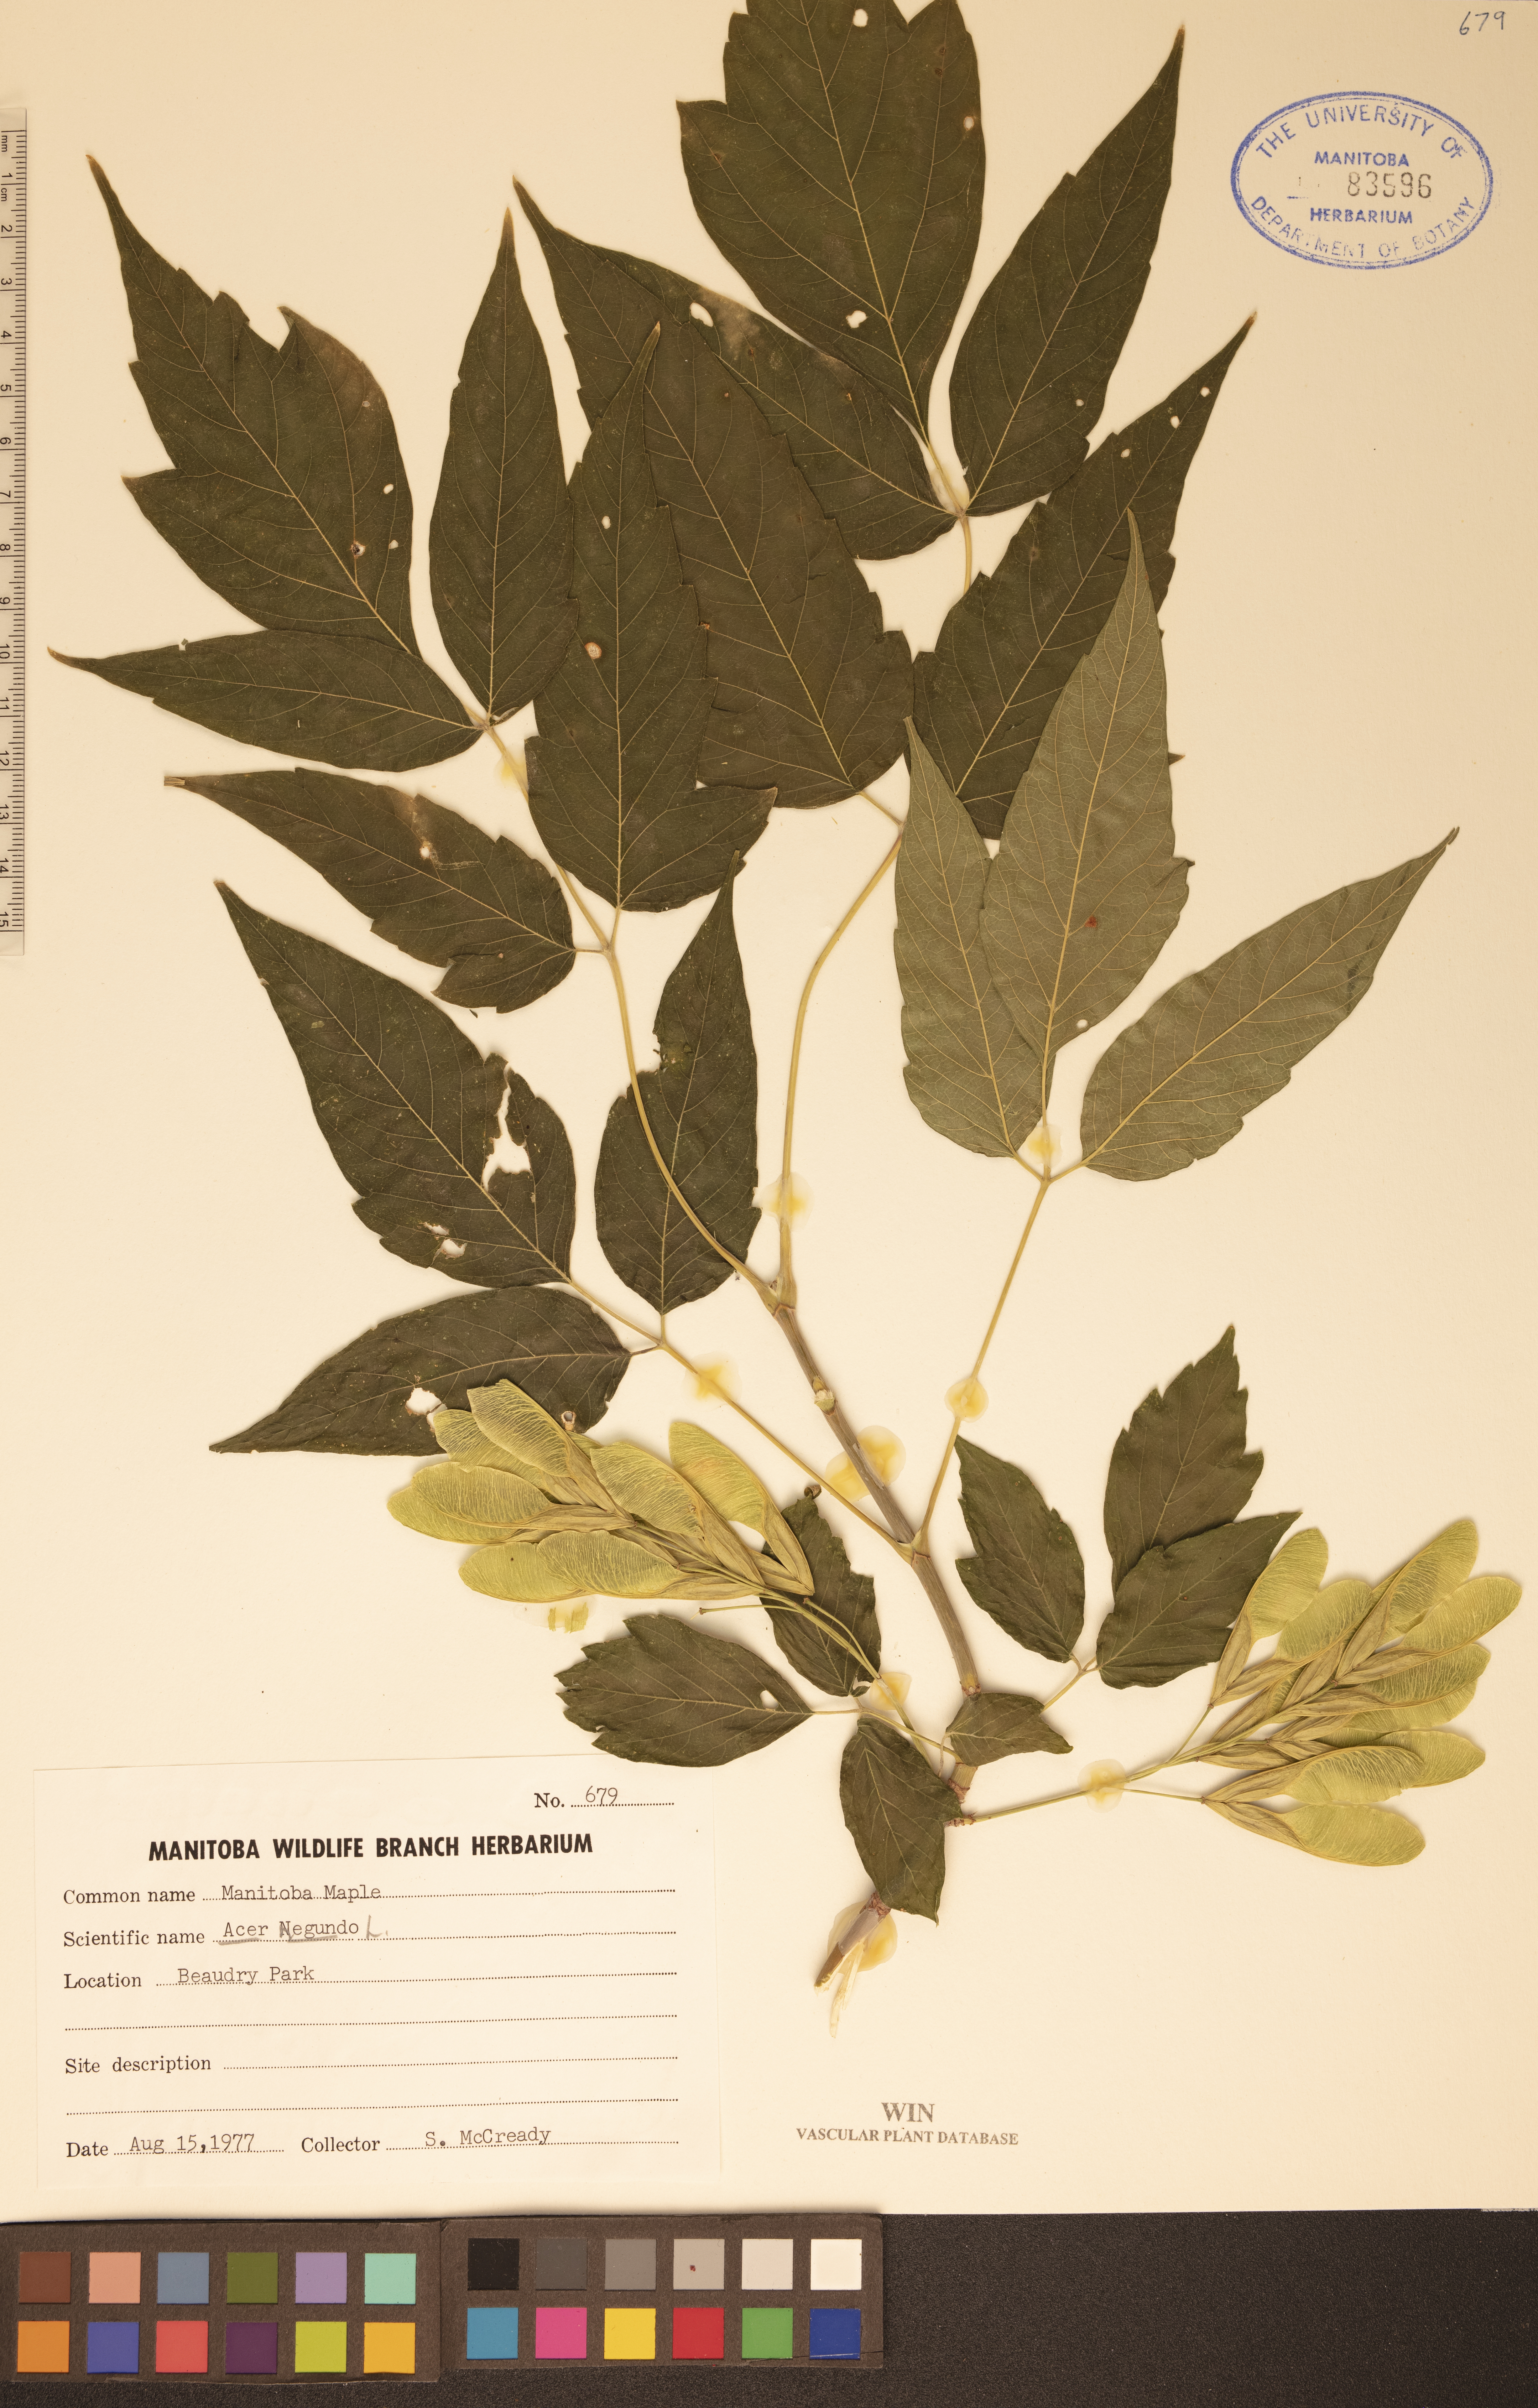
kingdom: Plantae
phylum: Tracheophyta
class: Magnoliopsida
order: Sapindales
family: Sapindaceae
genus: Acer
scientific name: Acer negundo
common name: Ashleaf maple
